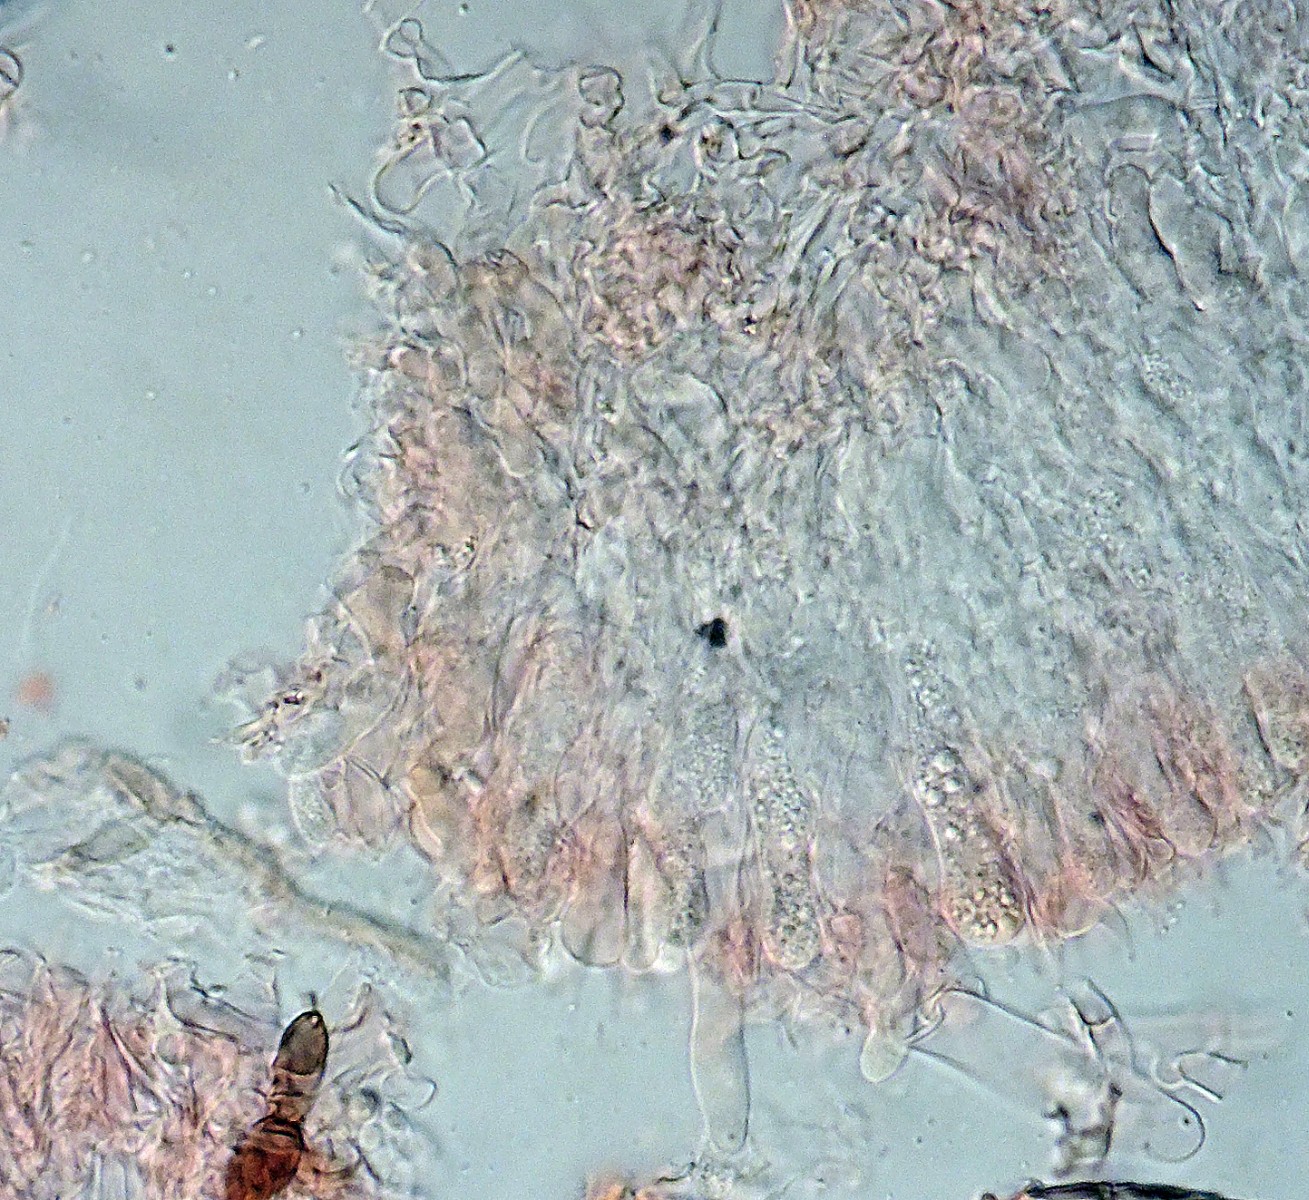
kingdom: Fungi
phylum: Basidiomycota
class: Agaricomycetes
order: Polyporales
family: Hyphodermataceae
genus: Hyphoderma
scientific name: Hyphoderma nemorale
